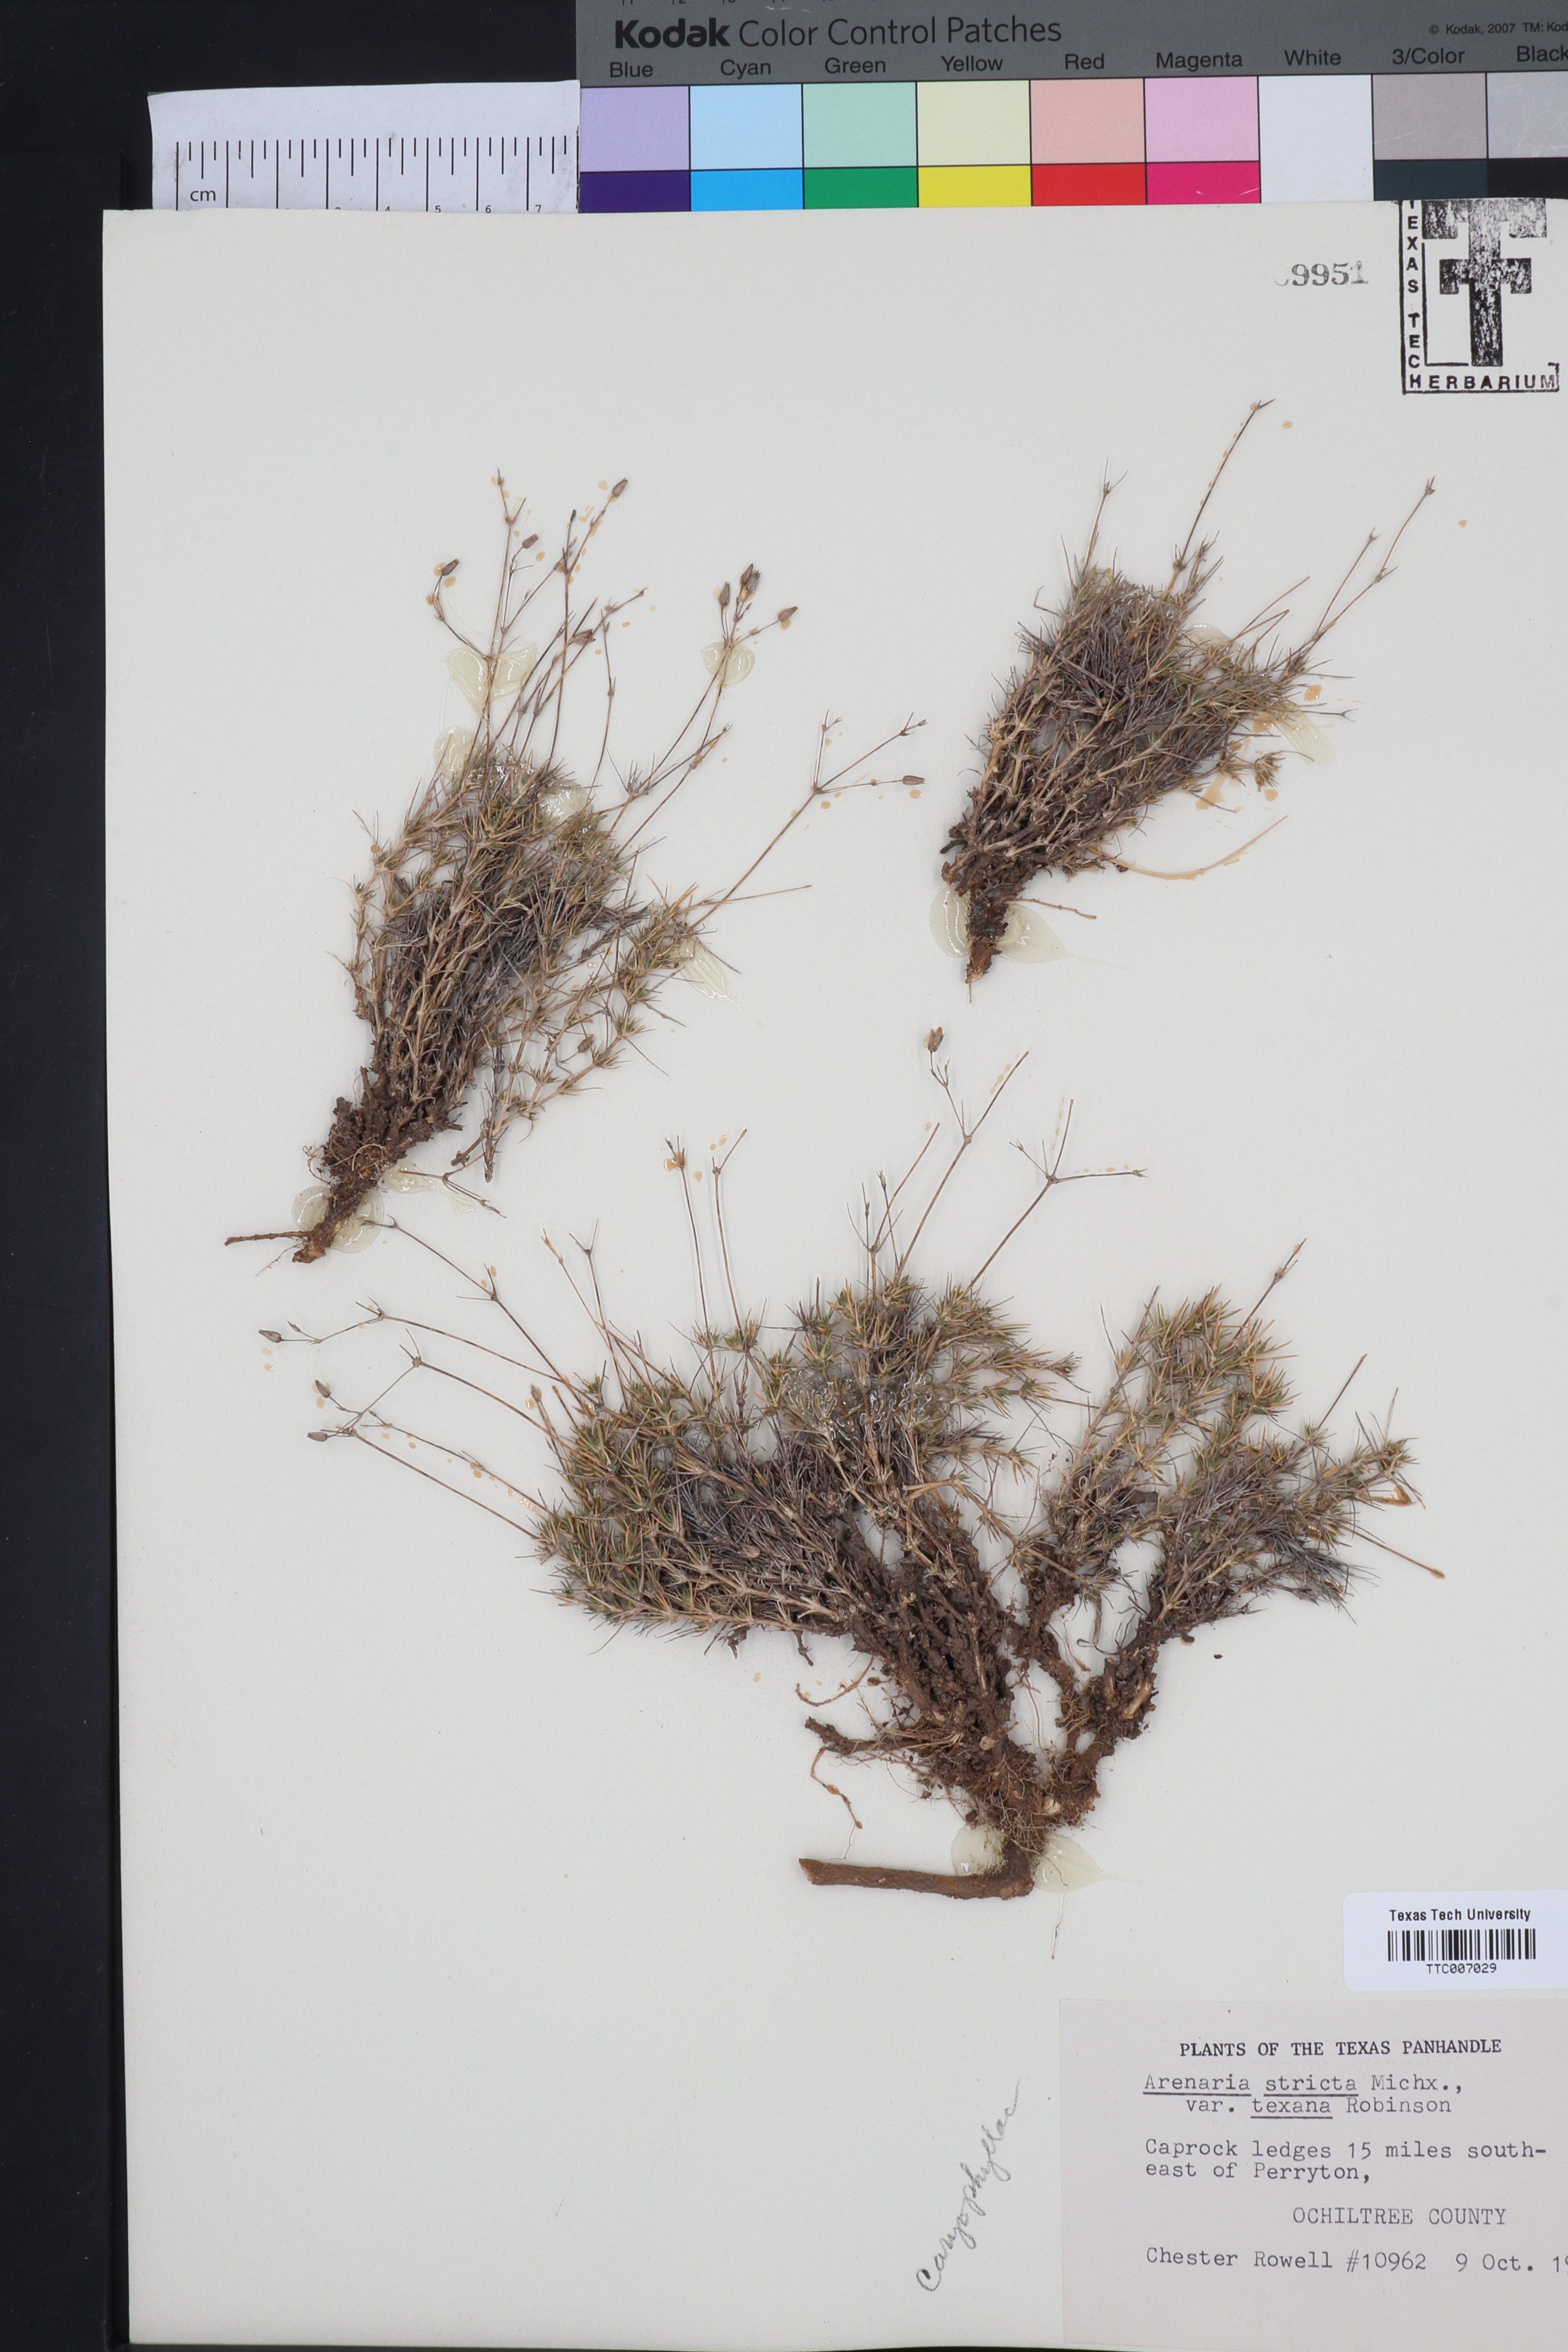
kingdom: Plantae
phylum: Tracheophyta
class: Magnoliopsida
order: Caryophyllales
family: Caryophyllaceae
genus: Sabulina
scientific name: Sabulina texana
